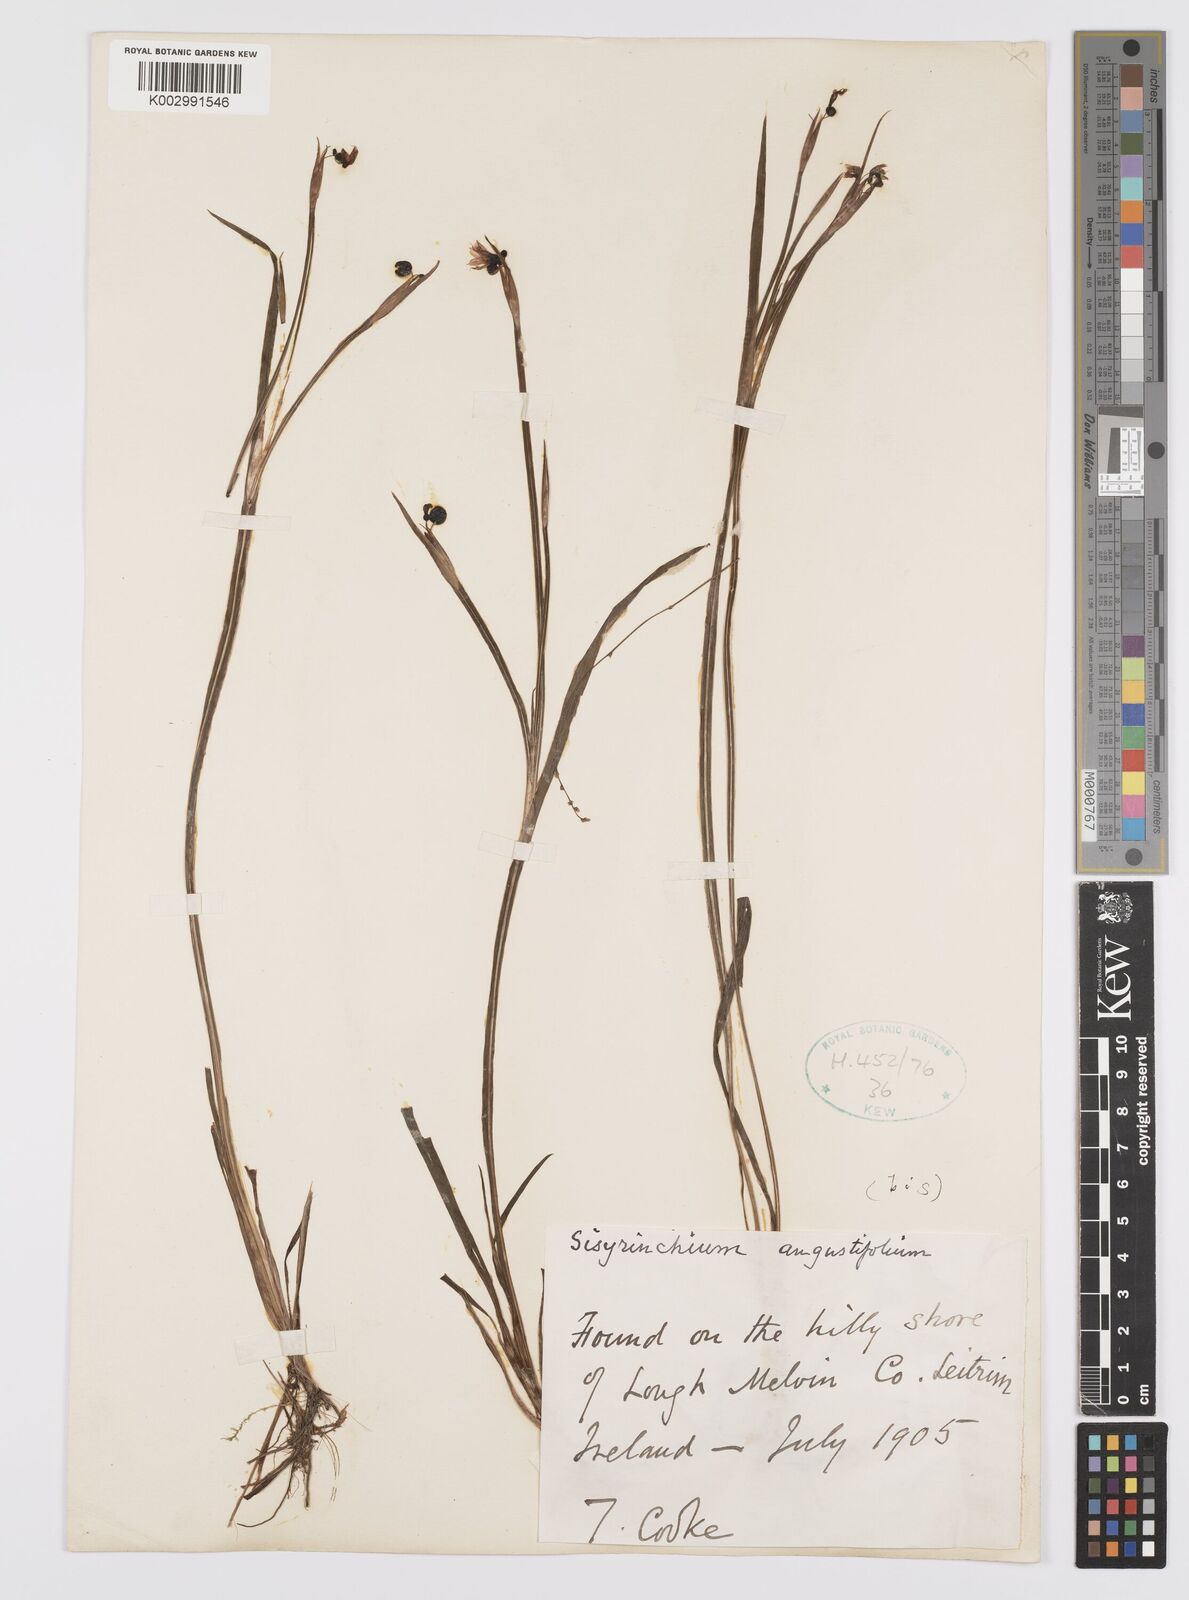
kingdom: Plantae
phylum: Tracheophyta
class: Liliopsida
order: Asparagales
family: Iridaceae
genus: Sisyrinchium
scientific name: Sisyrinchium angustifolium
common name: Narrow-leaf blue-eyed-grass
